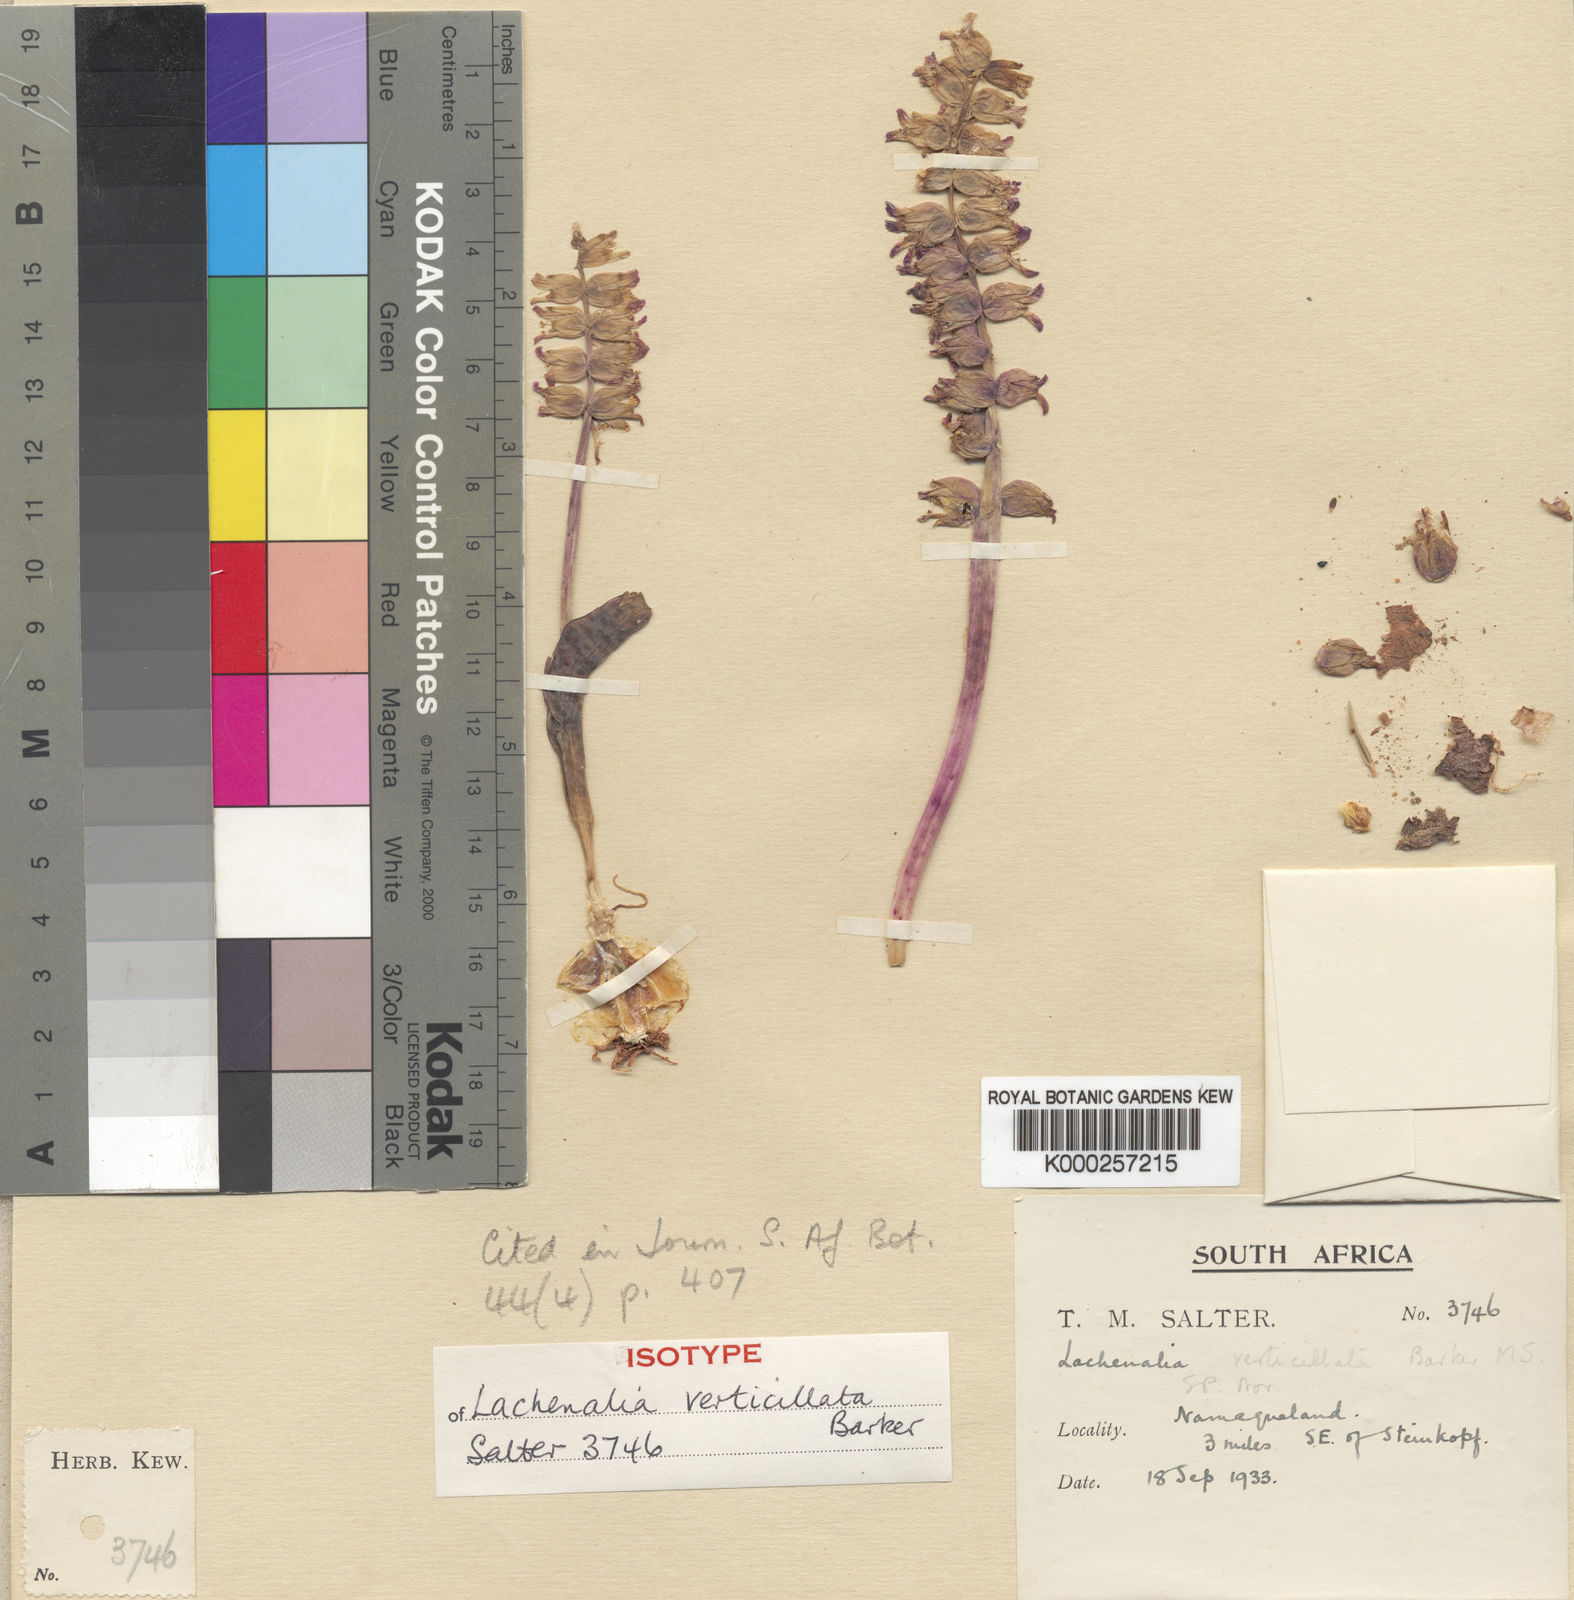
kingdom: Plantae
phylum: Tracheophyta
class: Liliopsida
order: Asparagales
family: Asparagaceae
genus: Lachenalia
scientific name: Lachenalia verticillata
